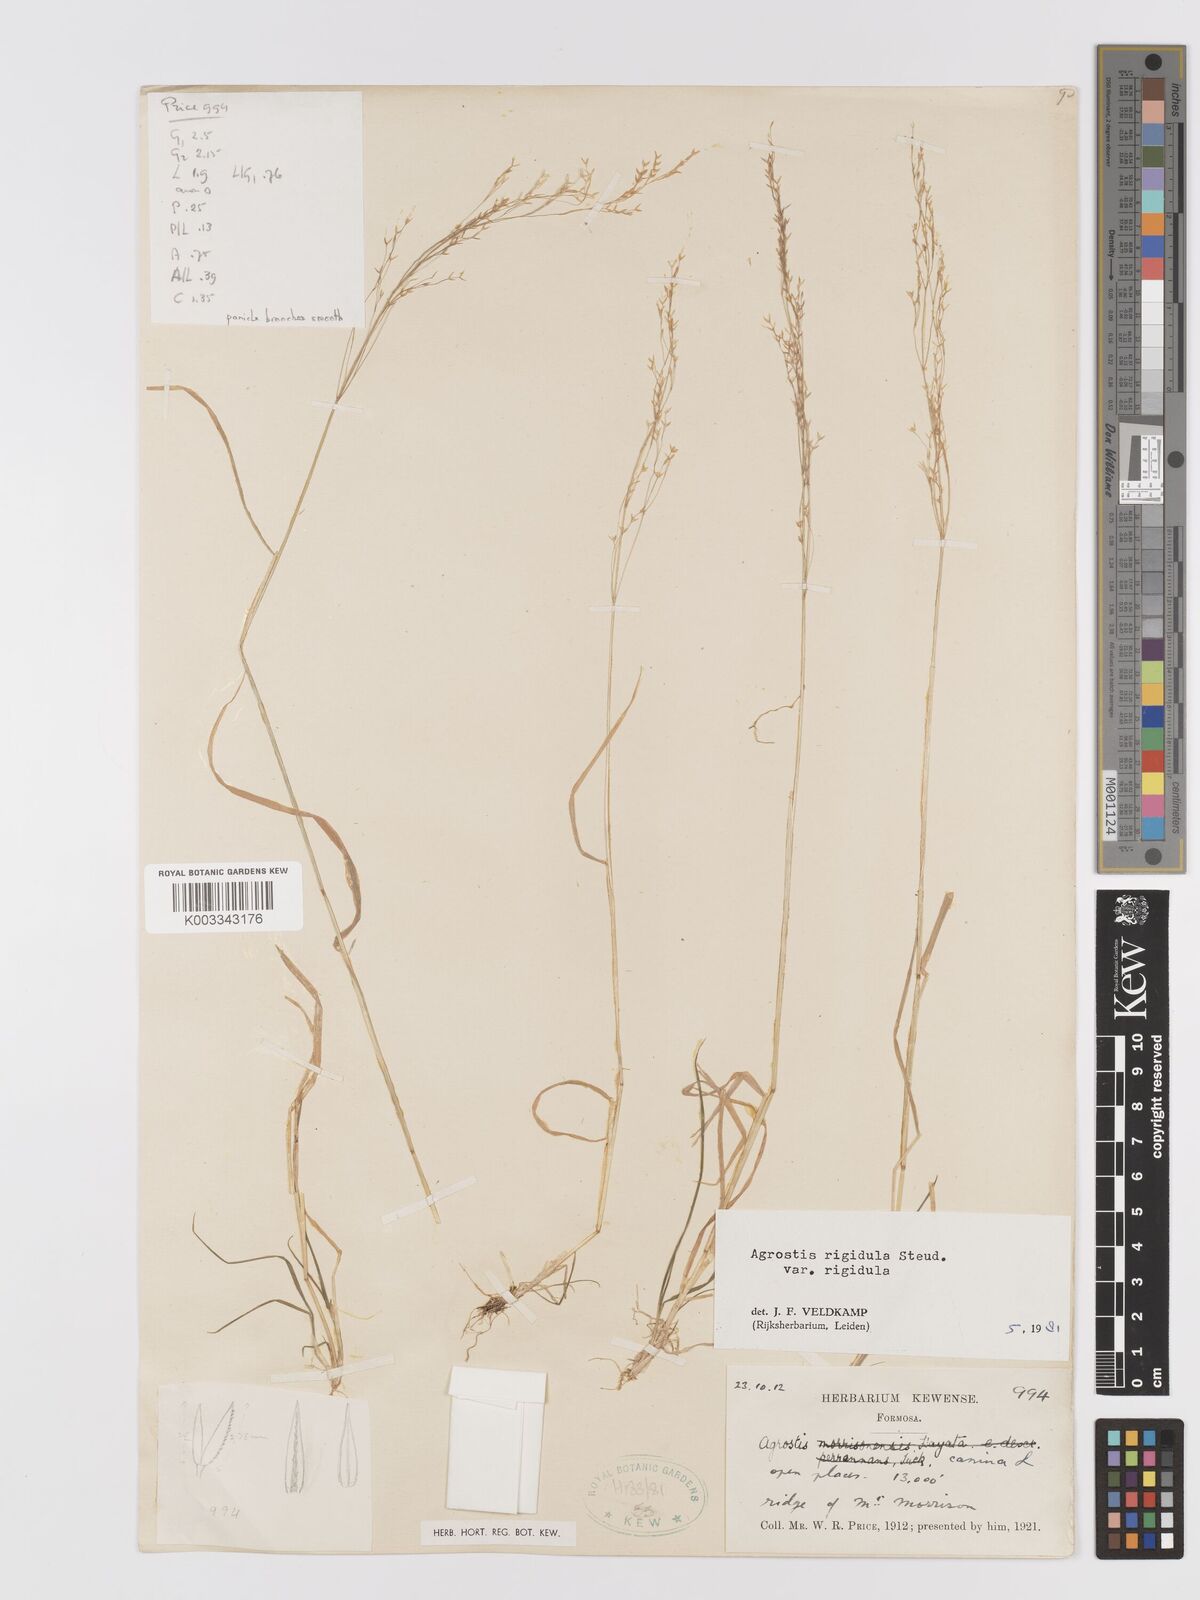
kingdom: Plantae
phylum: Tracheophyta
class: Liliopsida
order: Poales
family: Poaceae
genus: Agrostis
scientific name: Agrostis infirma
